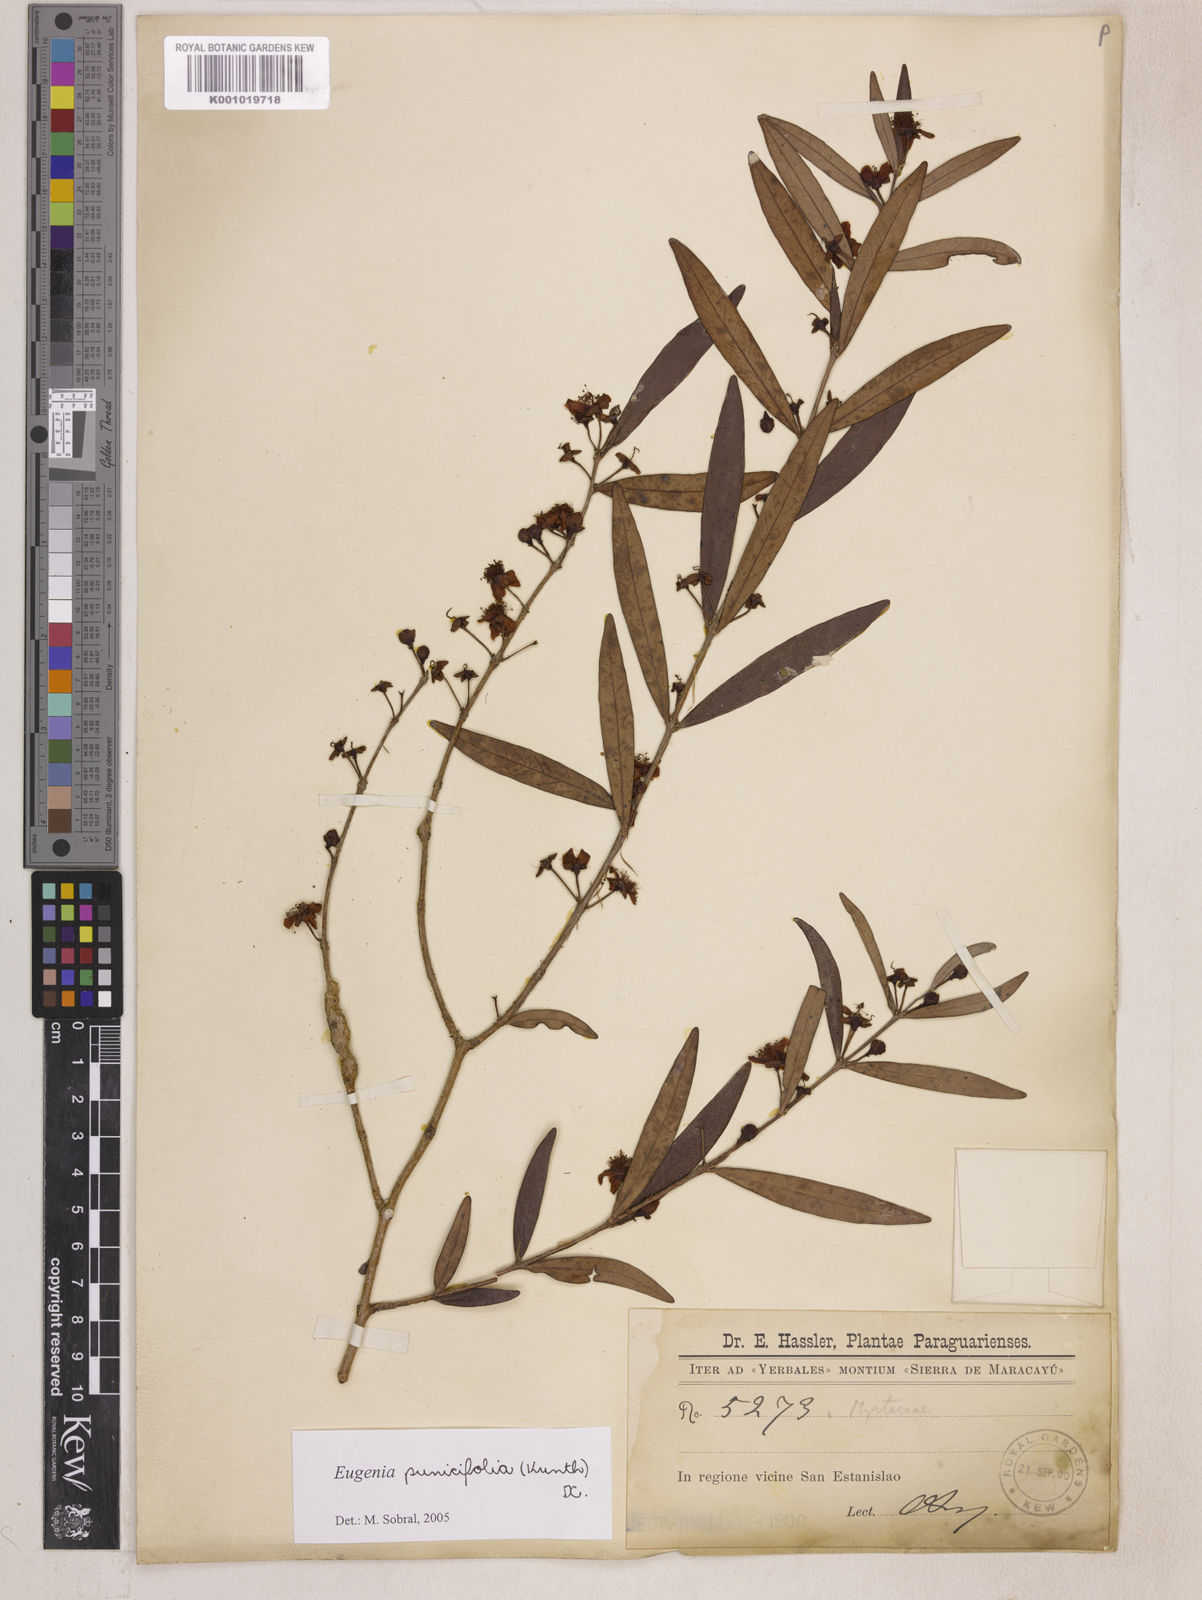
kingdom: Plantae
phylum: Tracheophyta
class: Magnoliopsida
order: Myrtales
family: Myrtaceae
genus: Eugenia
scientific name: Eugenia punicifolia
